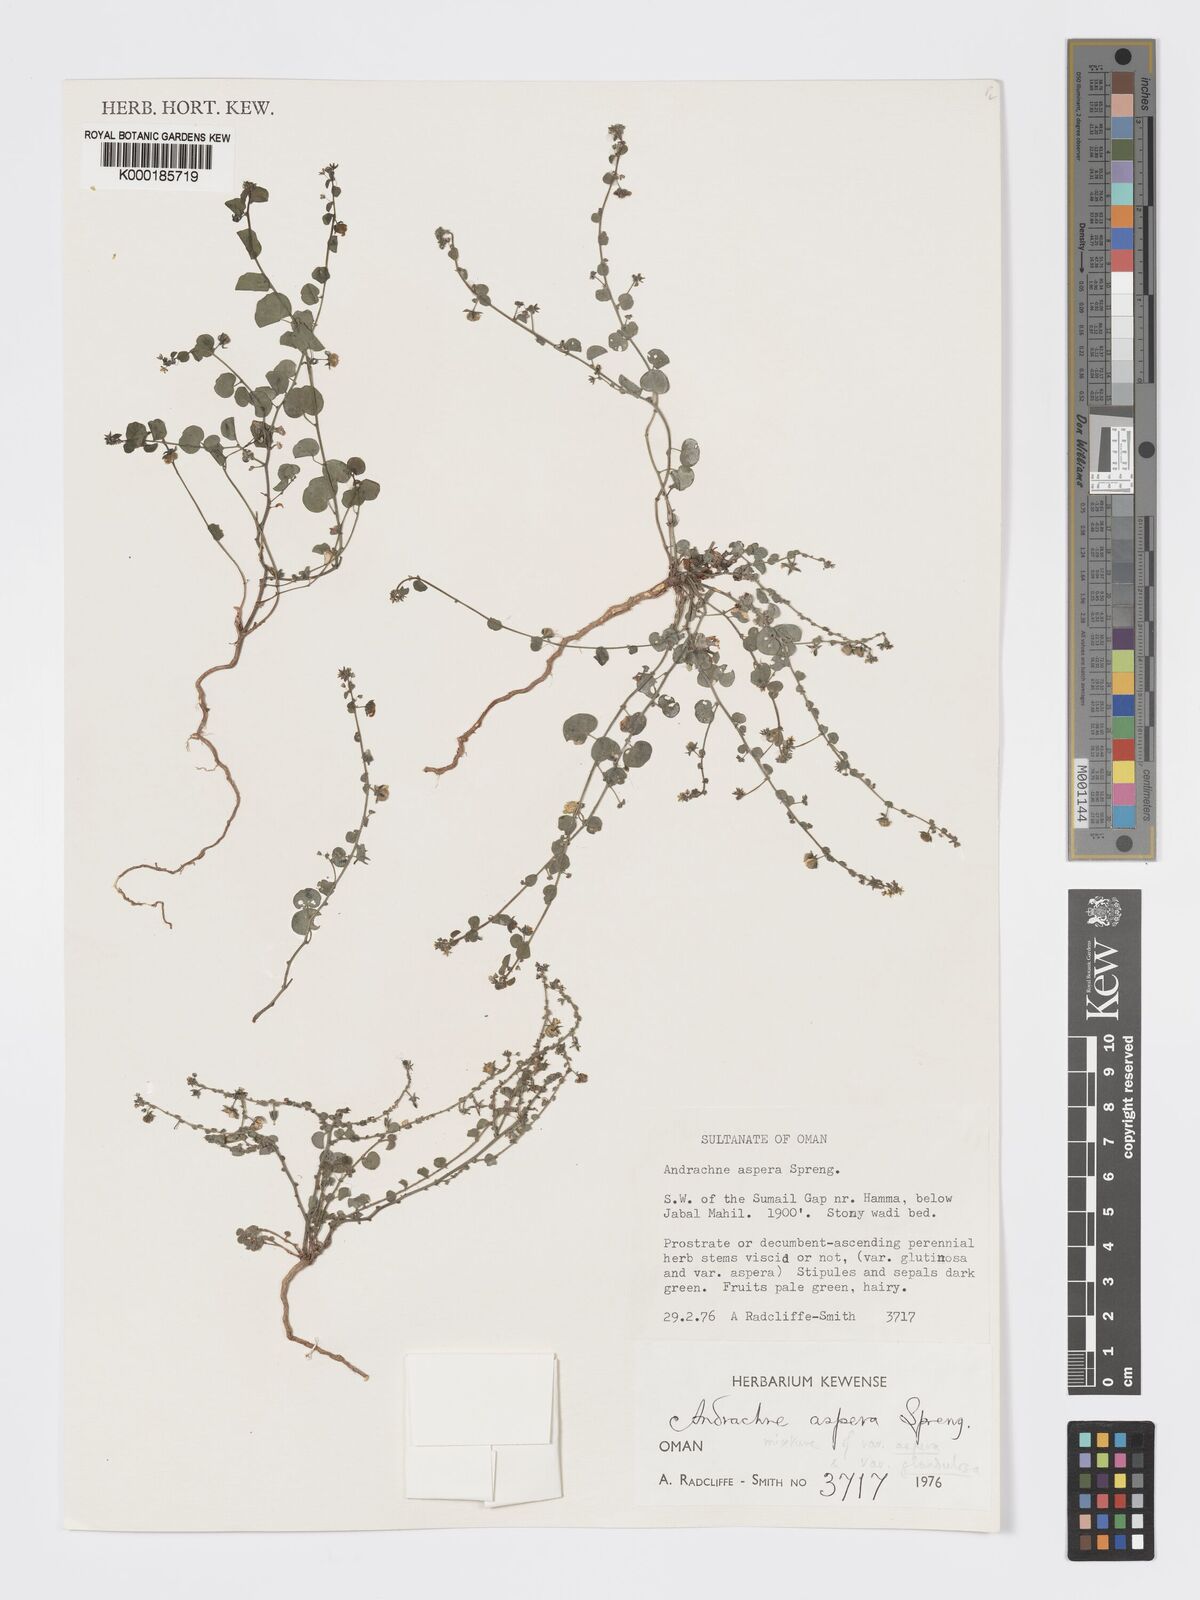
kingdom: Plantae
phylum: Tracheophyta
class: Magnoliopsida
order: Malpighiales
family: Phyllanthaceae
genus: Andrachne
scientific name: Andrachne aspera
